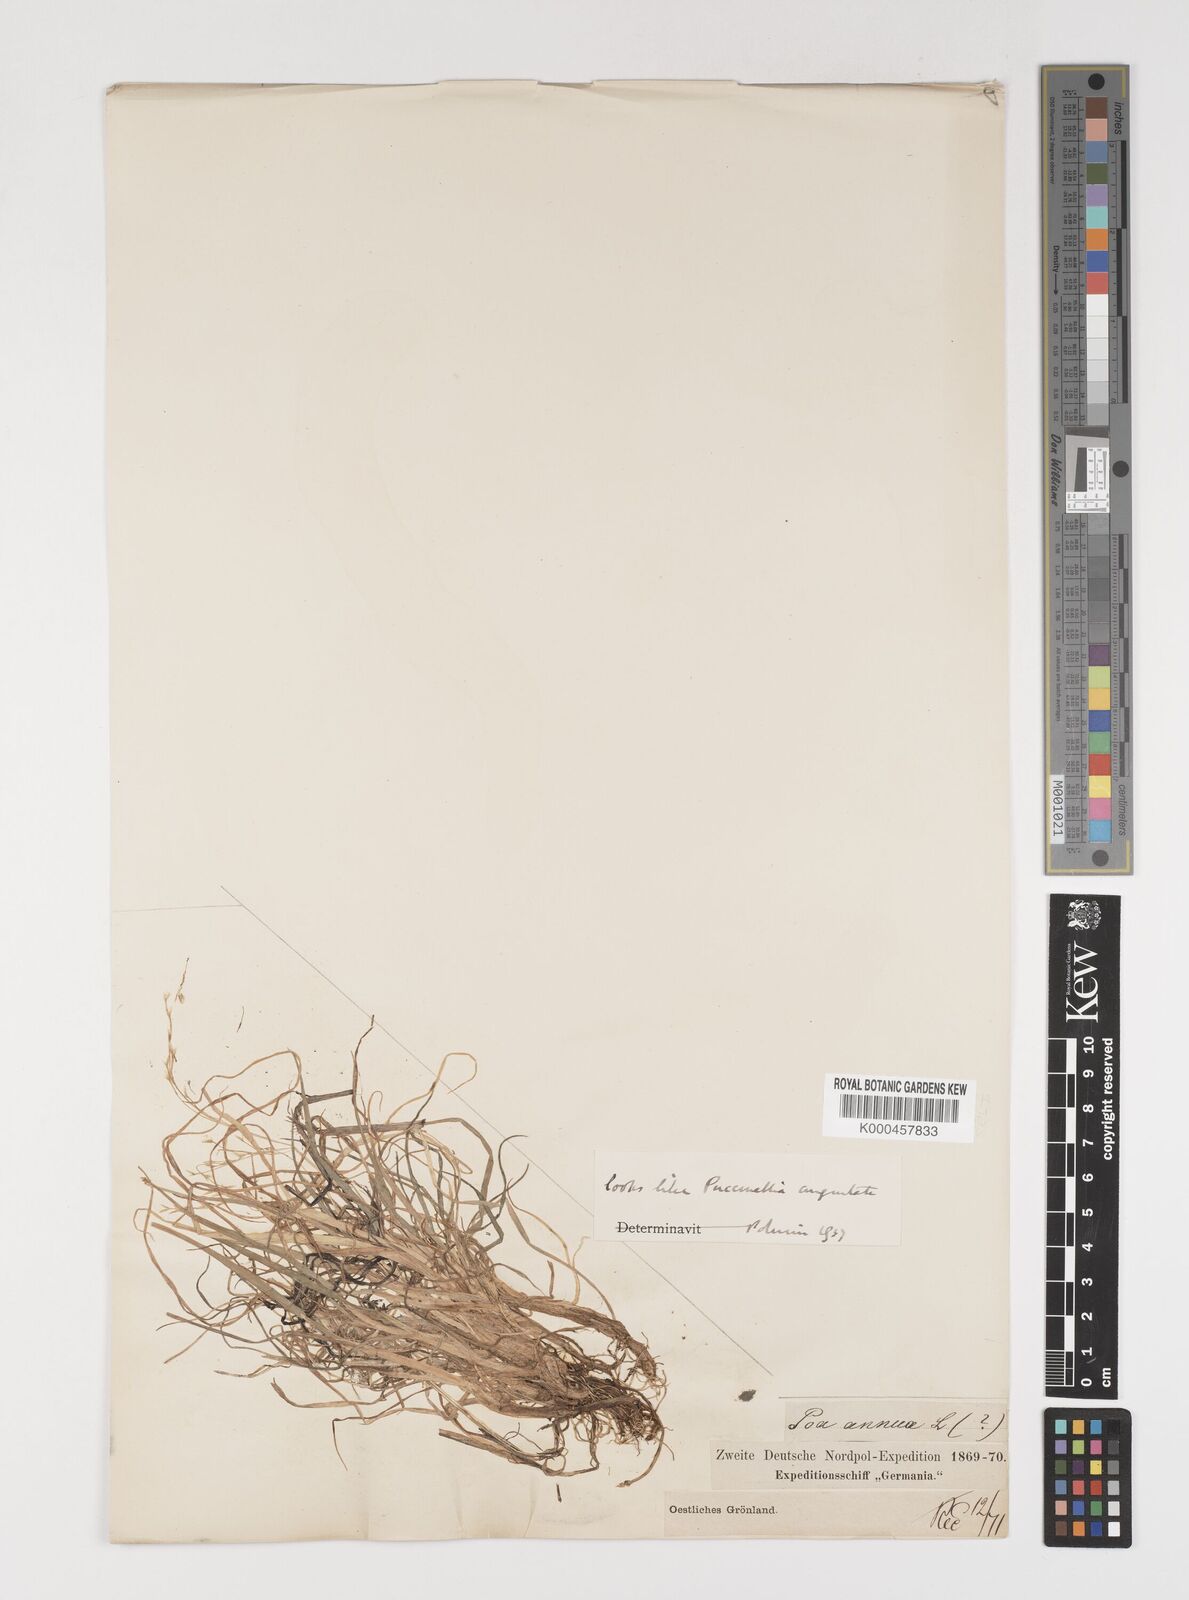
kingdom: Plantae
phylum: Tracheophyta
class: Liliopsida
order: Poales
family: Poaceae
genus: Puccinellia
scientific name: Puccinellia angustata
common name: Narrow alkaligrass
